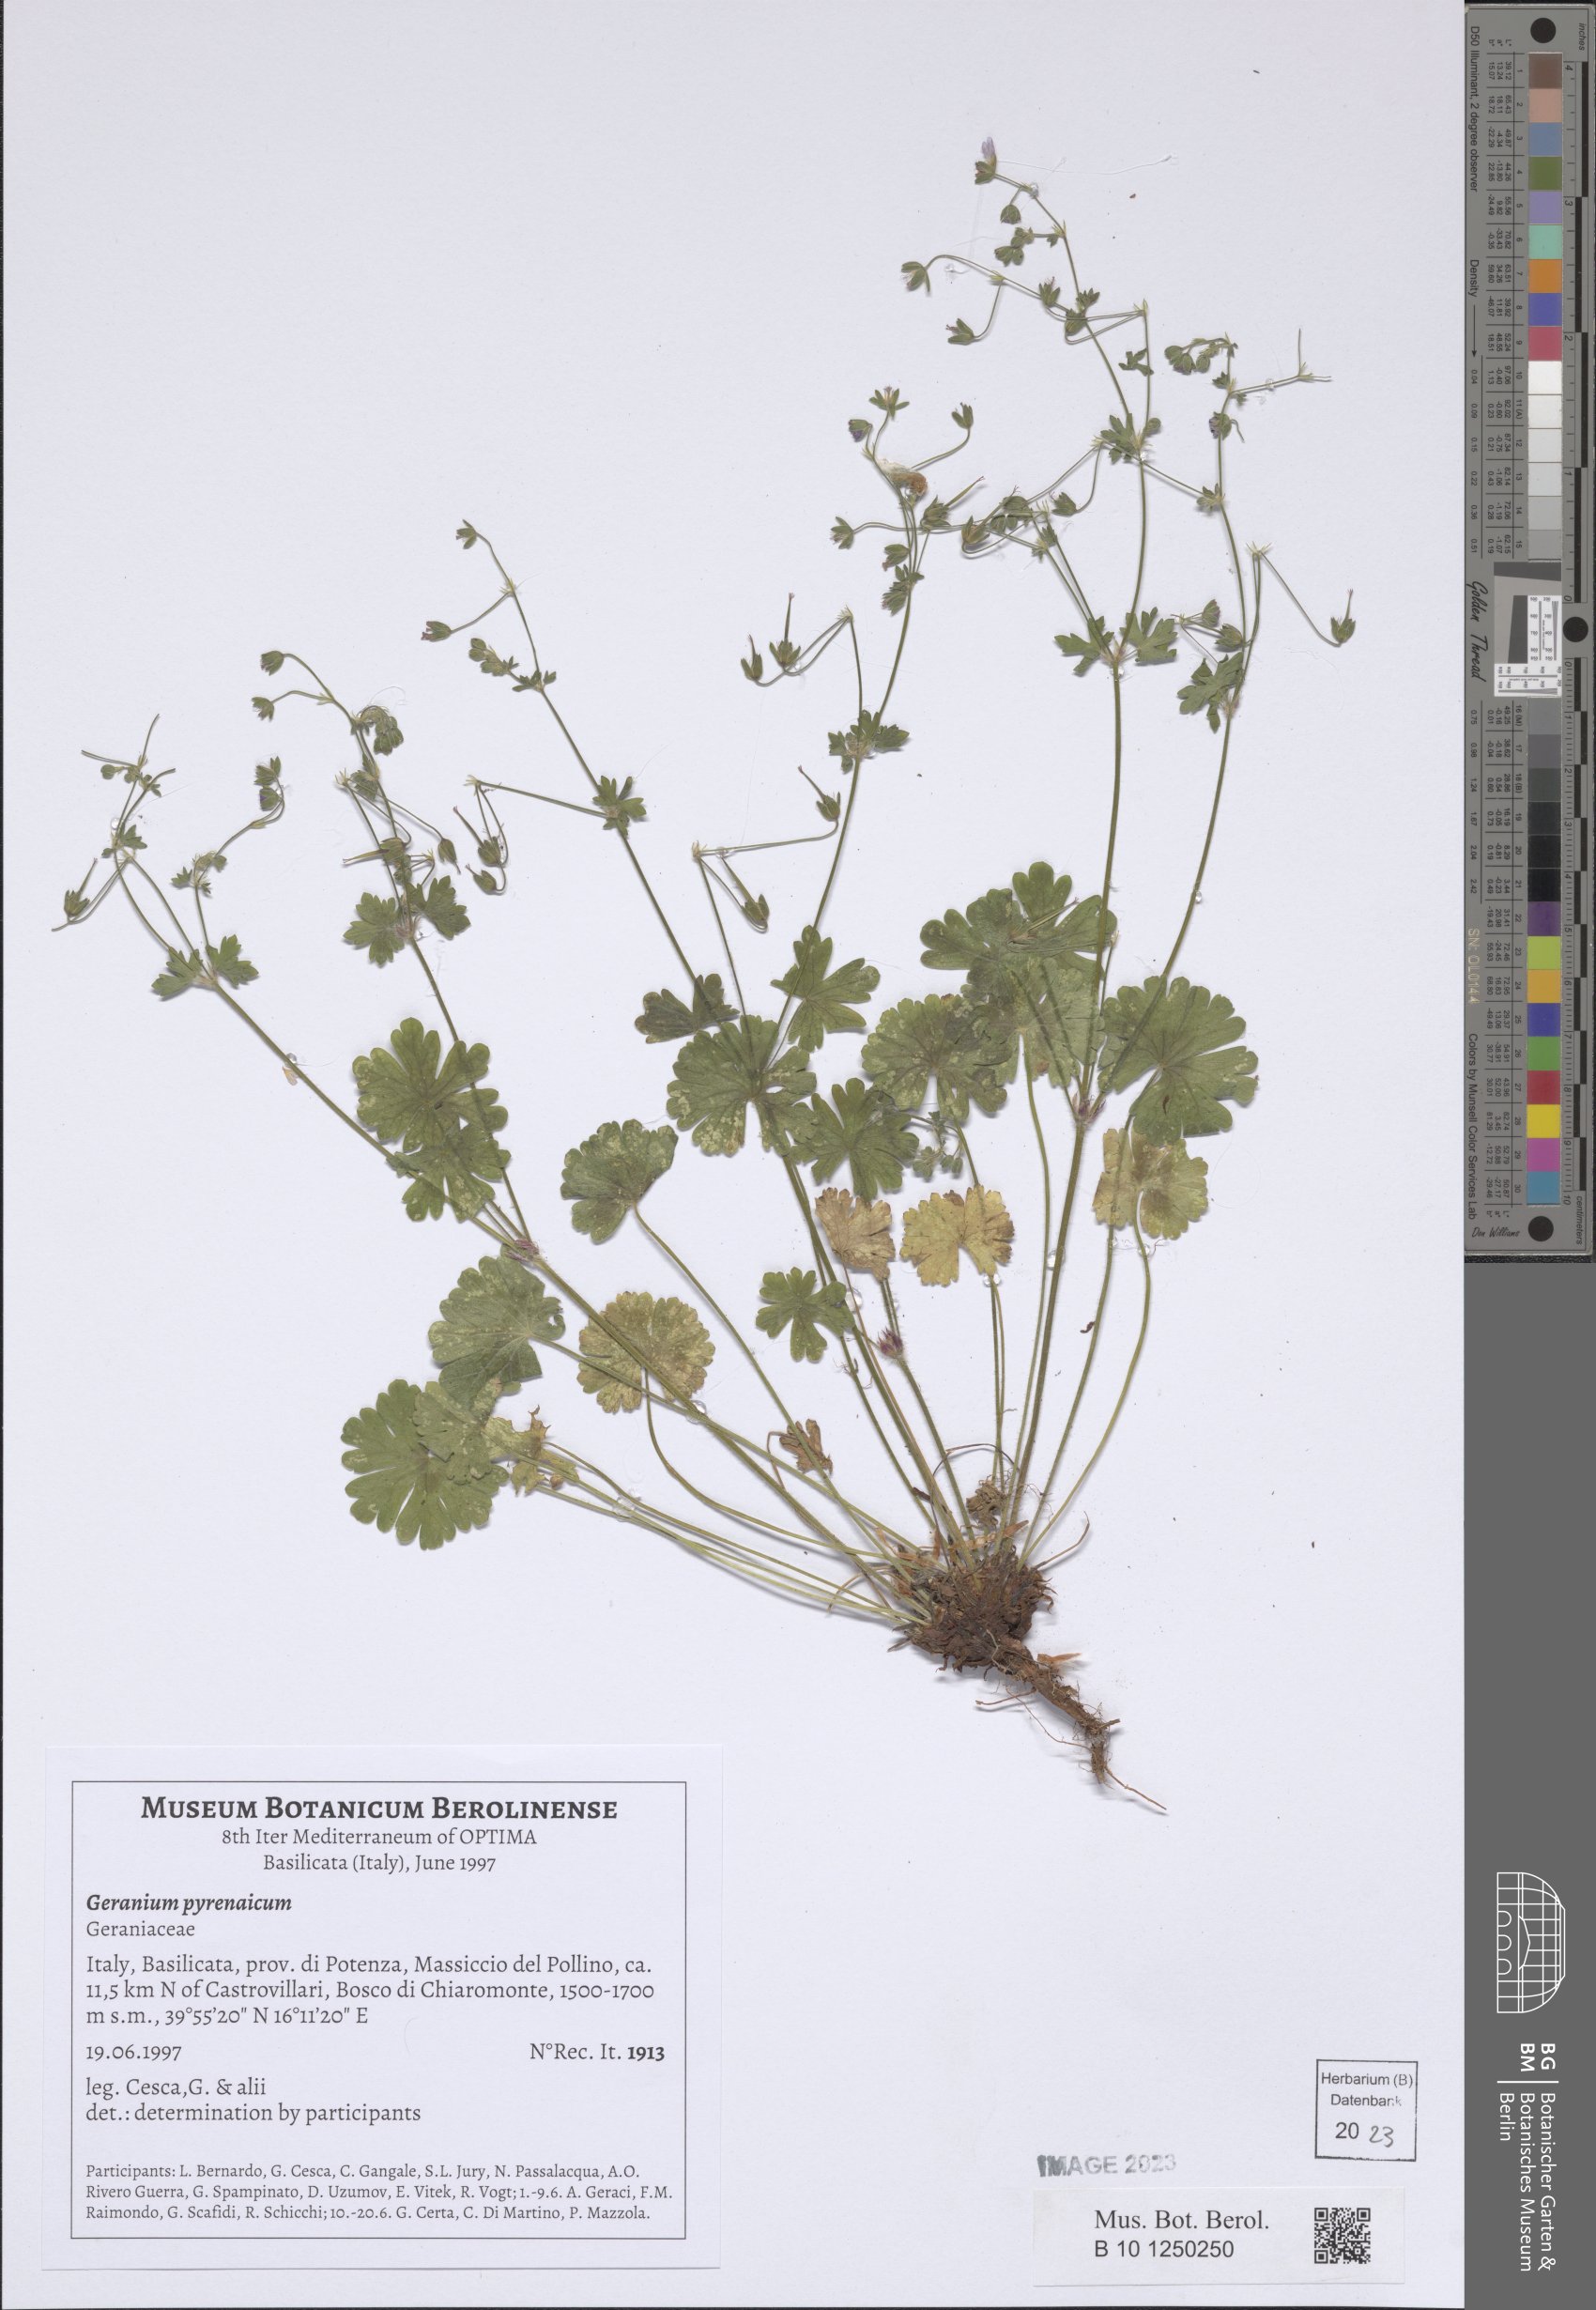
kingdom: Plantae
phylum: Tracheophyta
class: Magnoliopsida
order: Geraniales
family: Geraniaceae
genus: Geranium
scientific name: Geranium pyrenaicum
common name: Hedgerow crane's-bill
